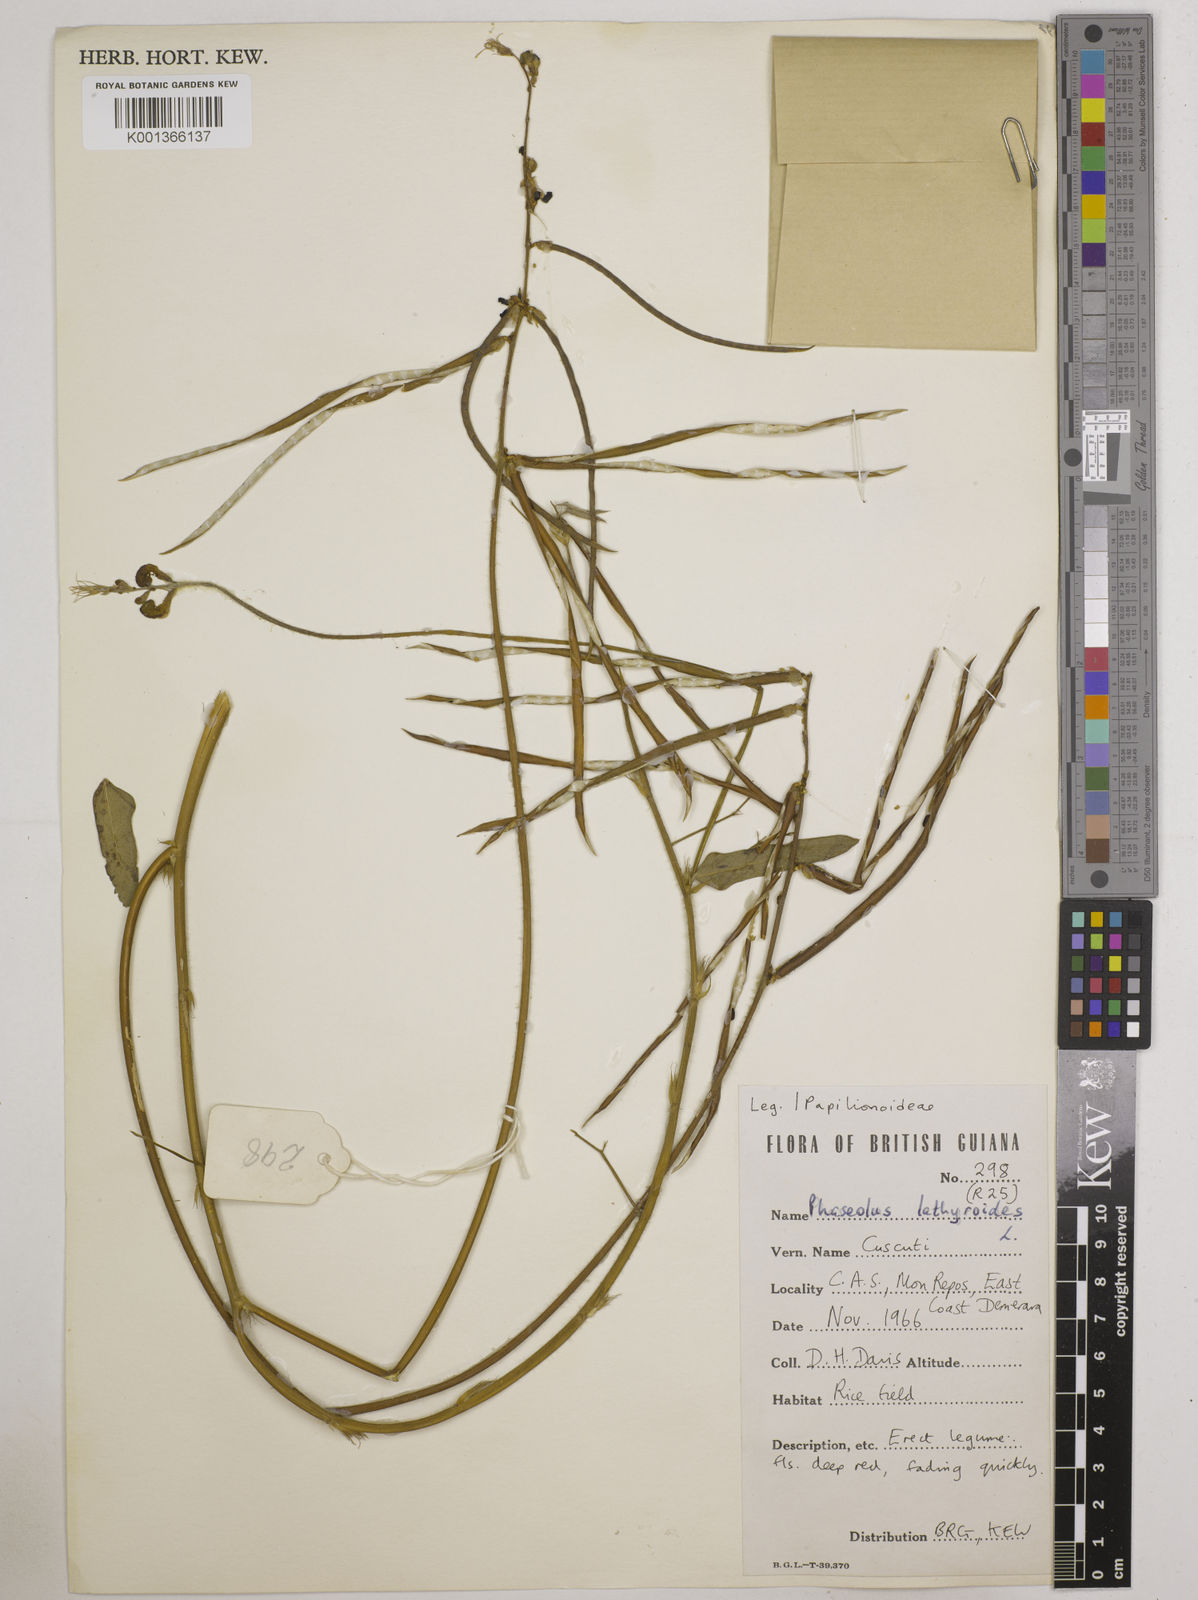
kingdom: Plantae
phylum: Tracheophyta
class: Magnoliopsida
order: Fabales
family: Fabaceae
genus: Macroptilium
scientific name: Macroptilium lathyroides
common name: Wild bushbean
